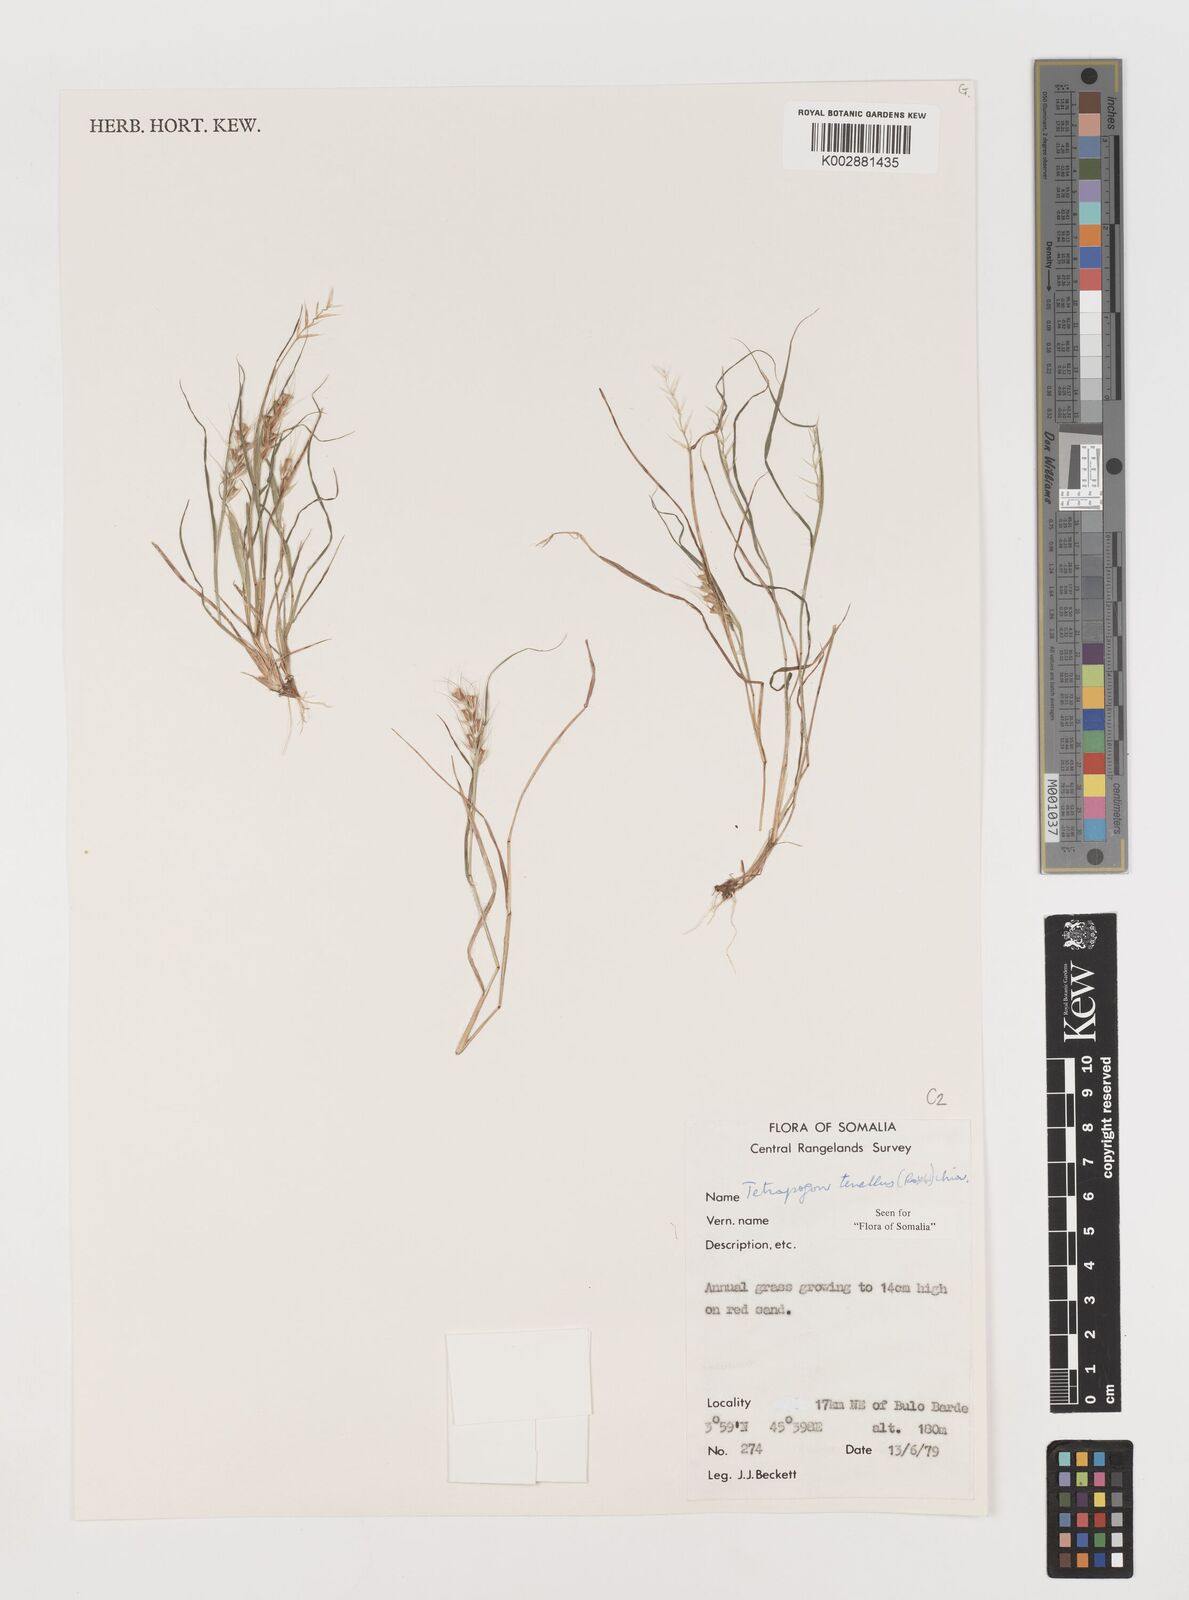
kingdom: Plantae
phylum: Tracheophyta
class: Liliopsida
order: Poales
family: Poaceae
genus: Tetrapogon
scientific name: Tetrapogon tenellus
